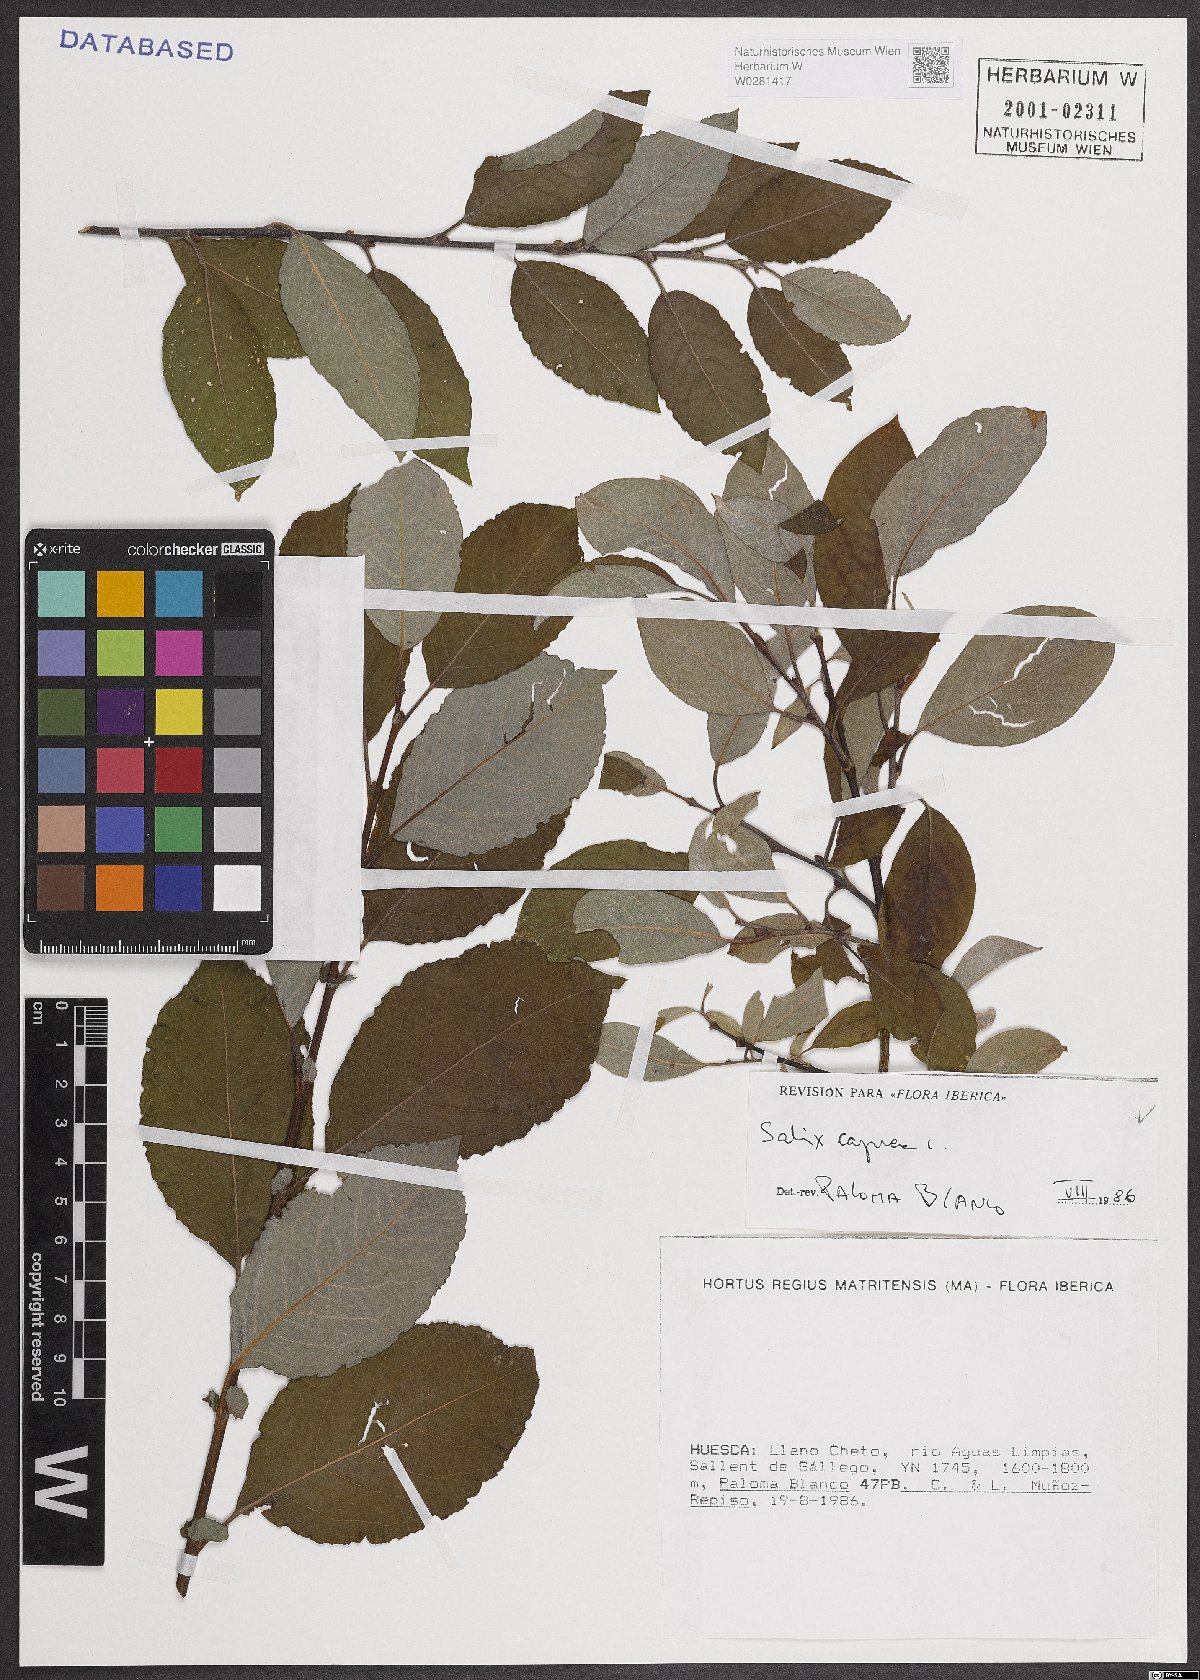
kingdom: Plantae
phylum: Tracheophyta
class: Magnoliopsida
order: Malpighiales
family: Salicaceae
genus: Salix
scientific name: Salix caprea
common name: Goat willow
